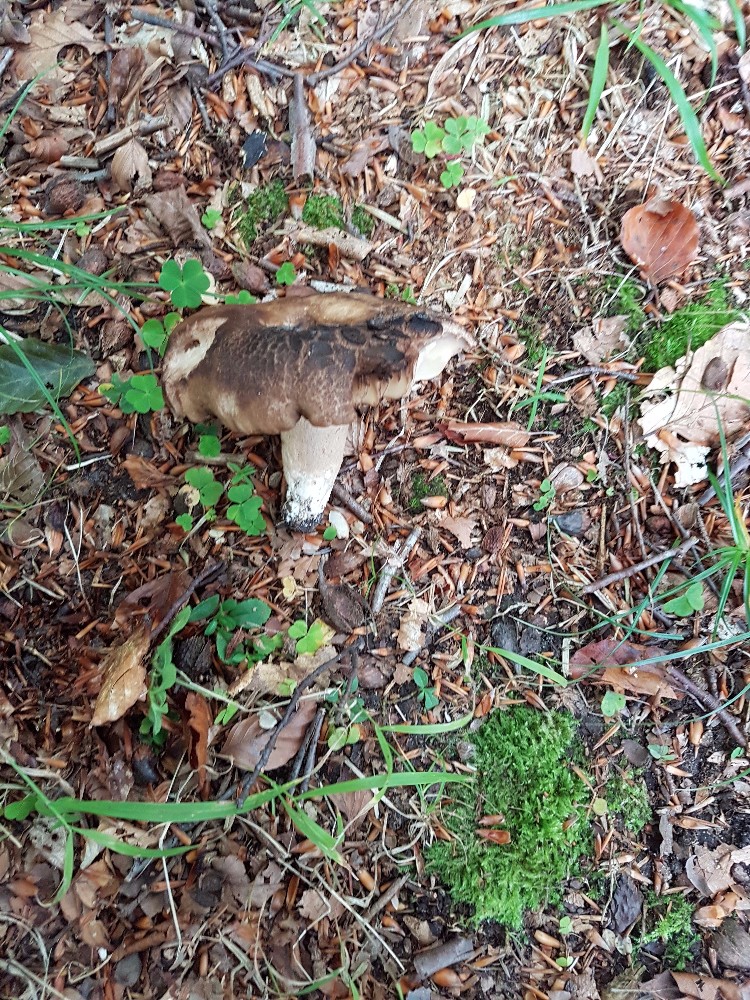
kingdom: Fungi
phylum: Basidiomycota
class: Agaricomycetes
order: Russulales
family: Russulaceae
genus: Russula
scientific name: Russula adusta
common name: sværtende skørhat
